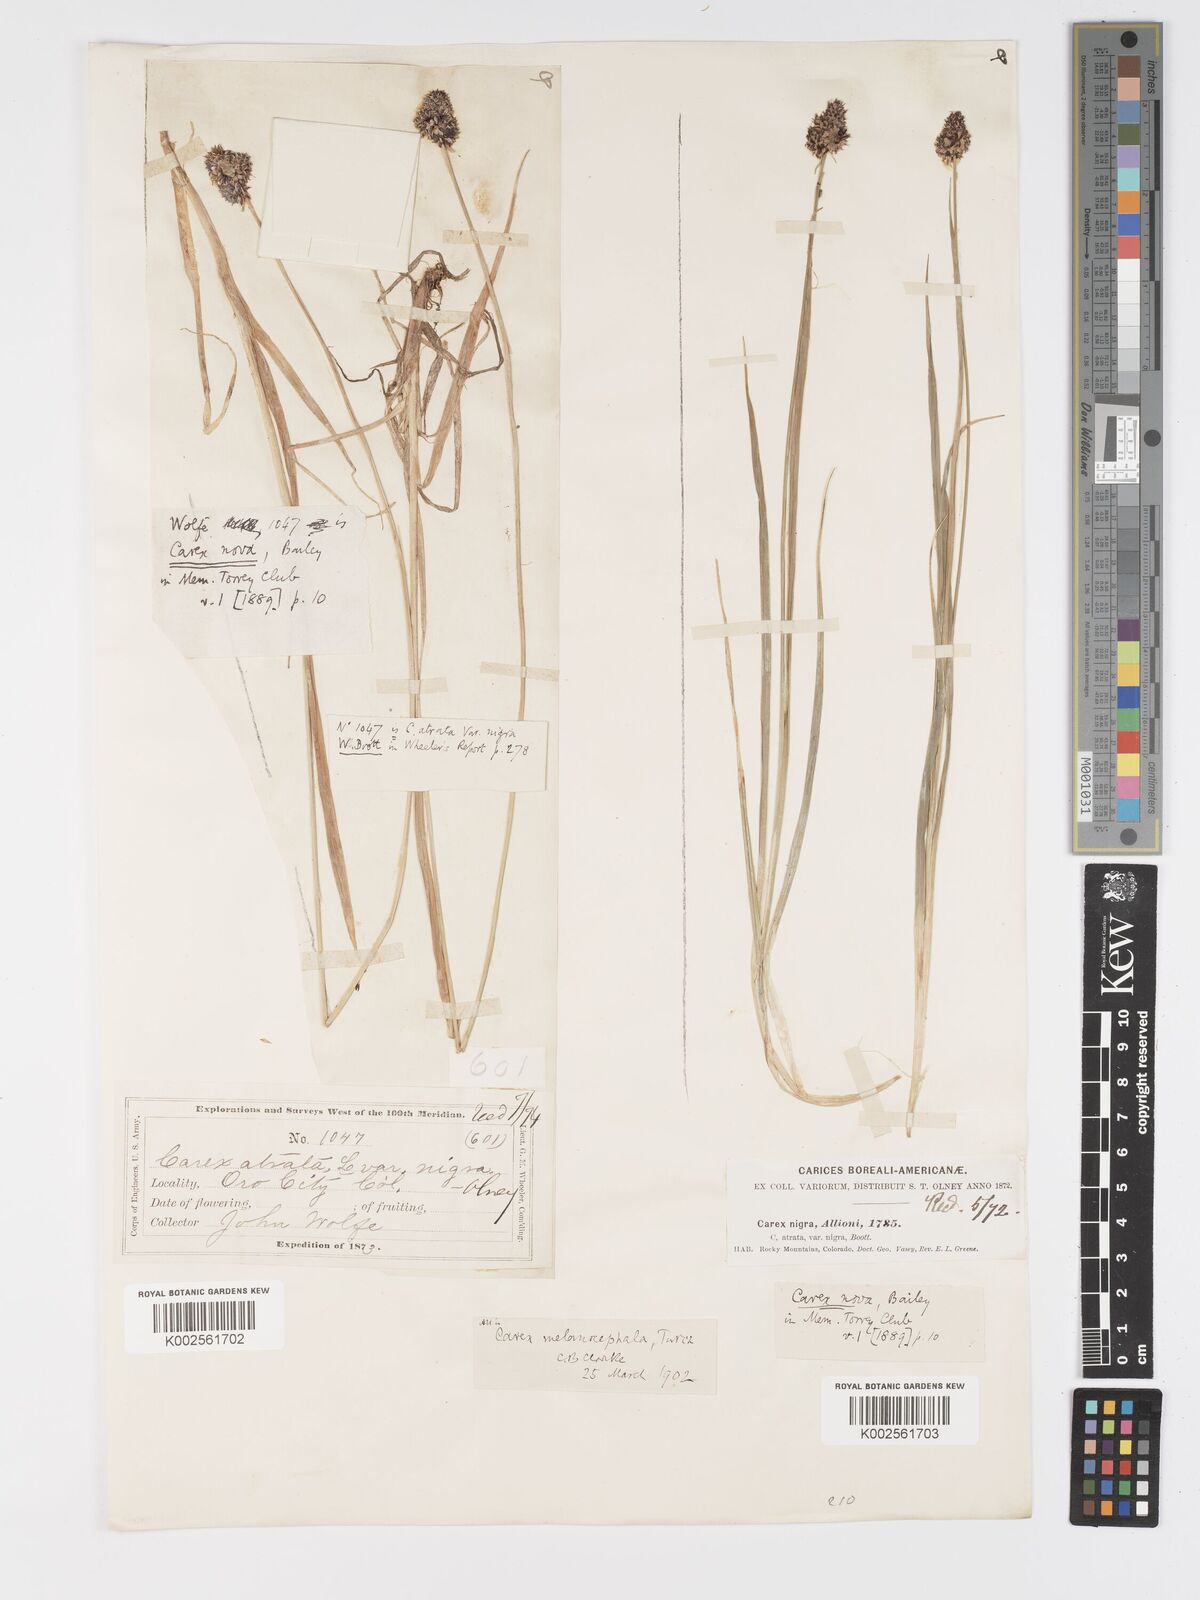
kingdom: Plantae
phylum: Tracheophyta
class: Liliopsida
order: Poales
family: Cyperaceae
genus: Carex
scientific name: Carex nova
